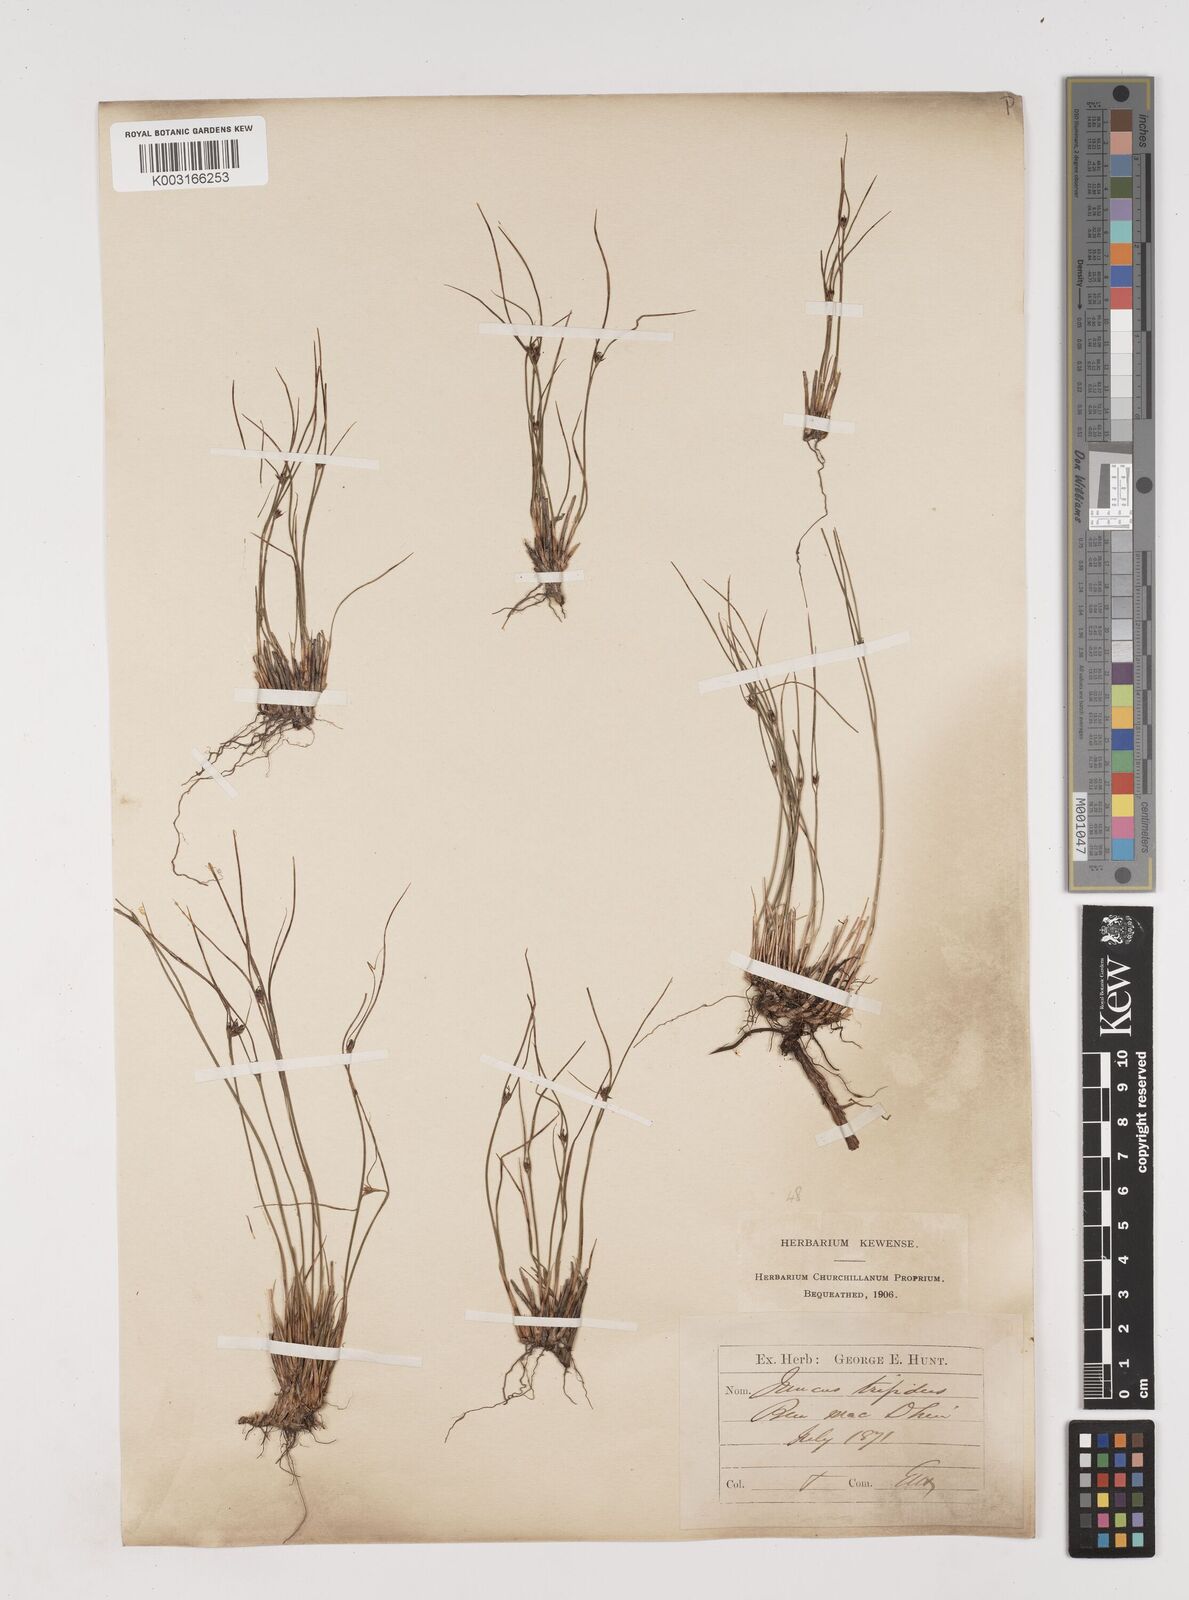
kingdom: Plantae
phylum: Tracheophyta
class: Liliopsida
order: Poales
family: Juncaceae
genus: Oreojuncus
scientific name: Oreojuncus trifidus
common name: Highland rush
